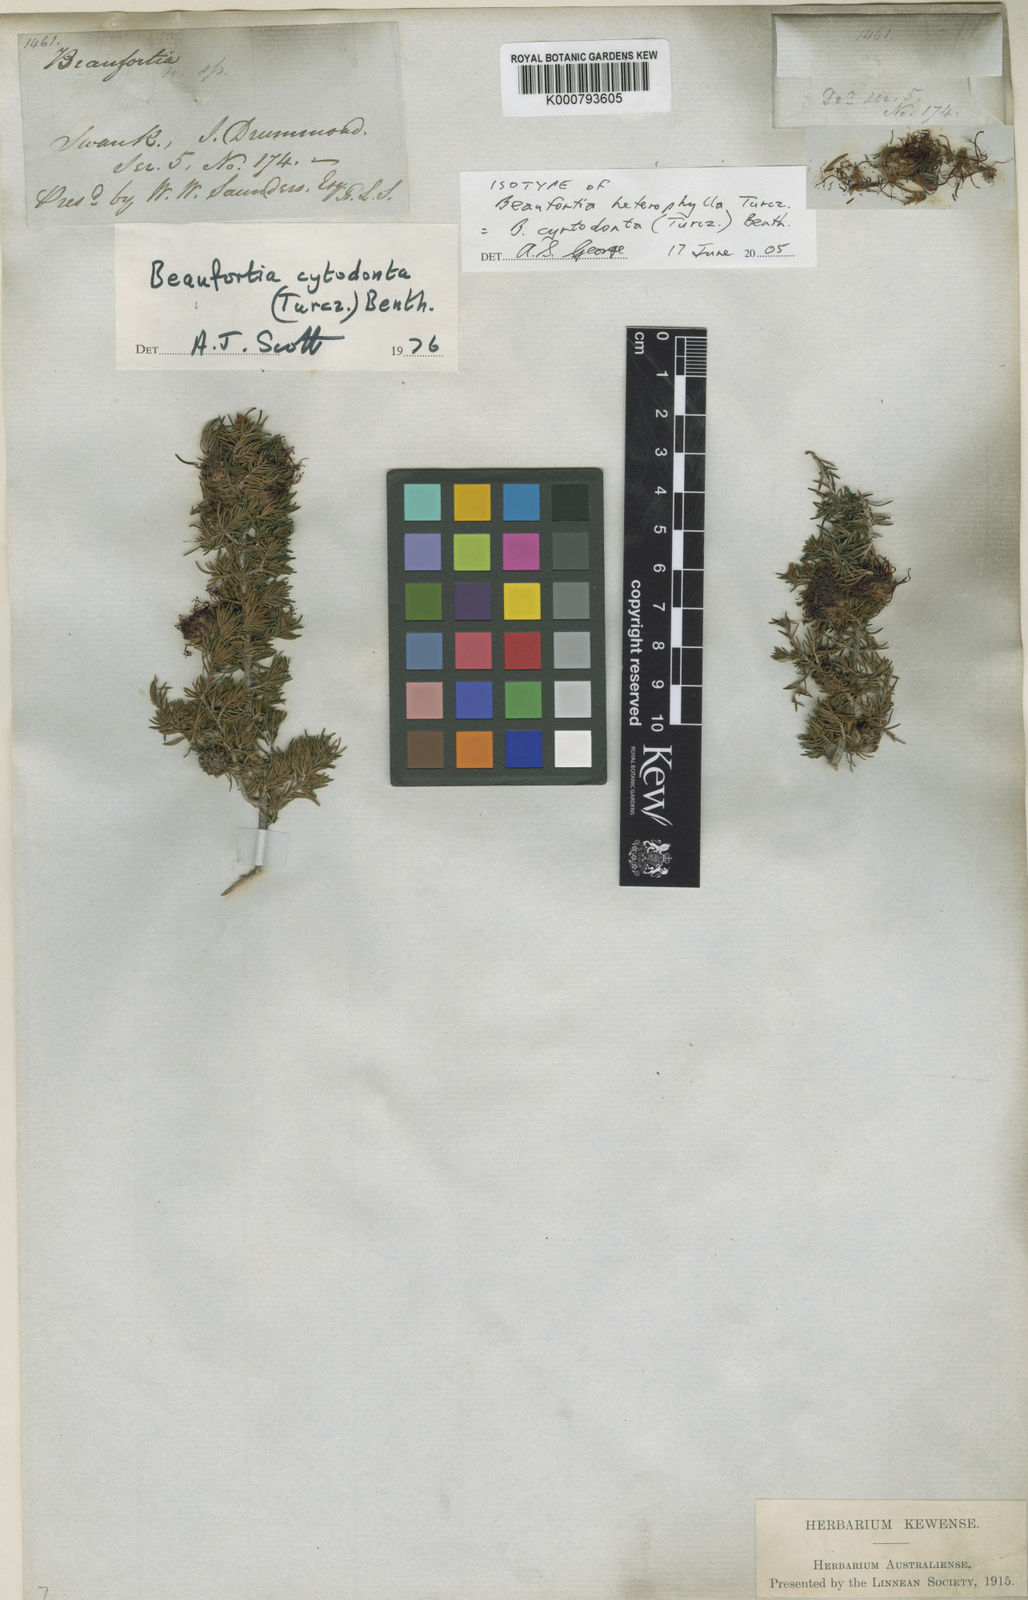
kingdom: Plantae
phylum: Tracheophyta
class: Magnoliopsida
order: Myrtales
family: Myrtaceae
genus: Melaleuca
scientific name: Melaleuca cyrtodonta
